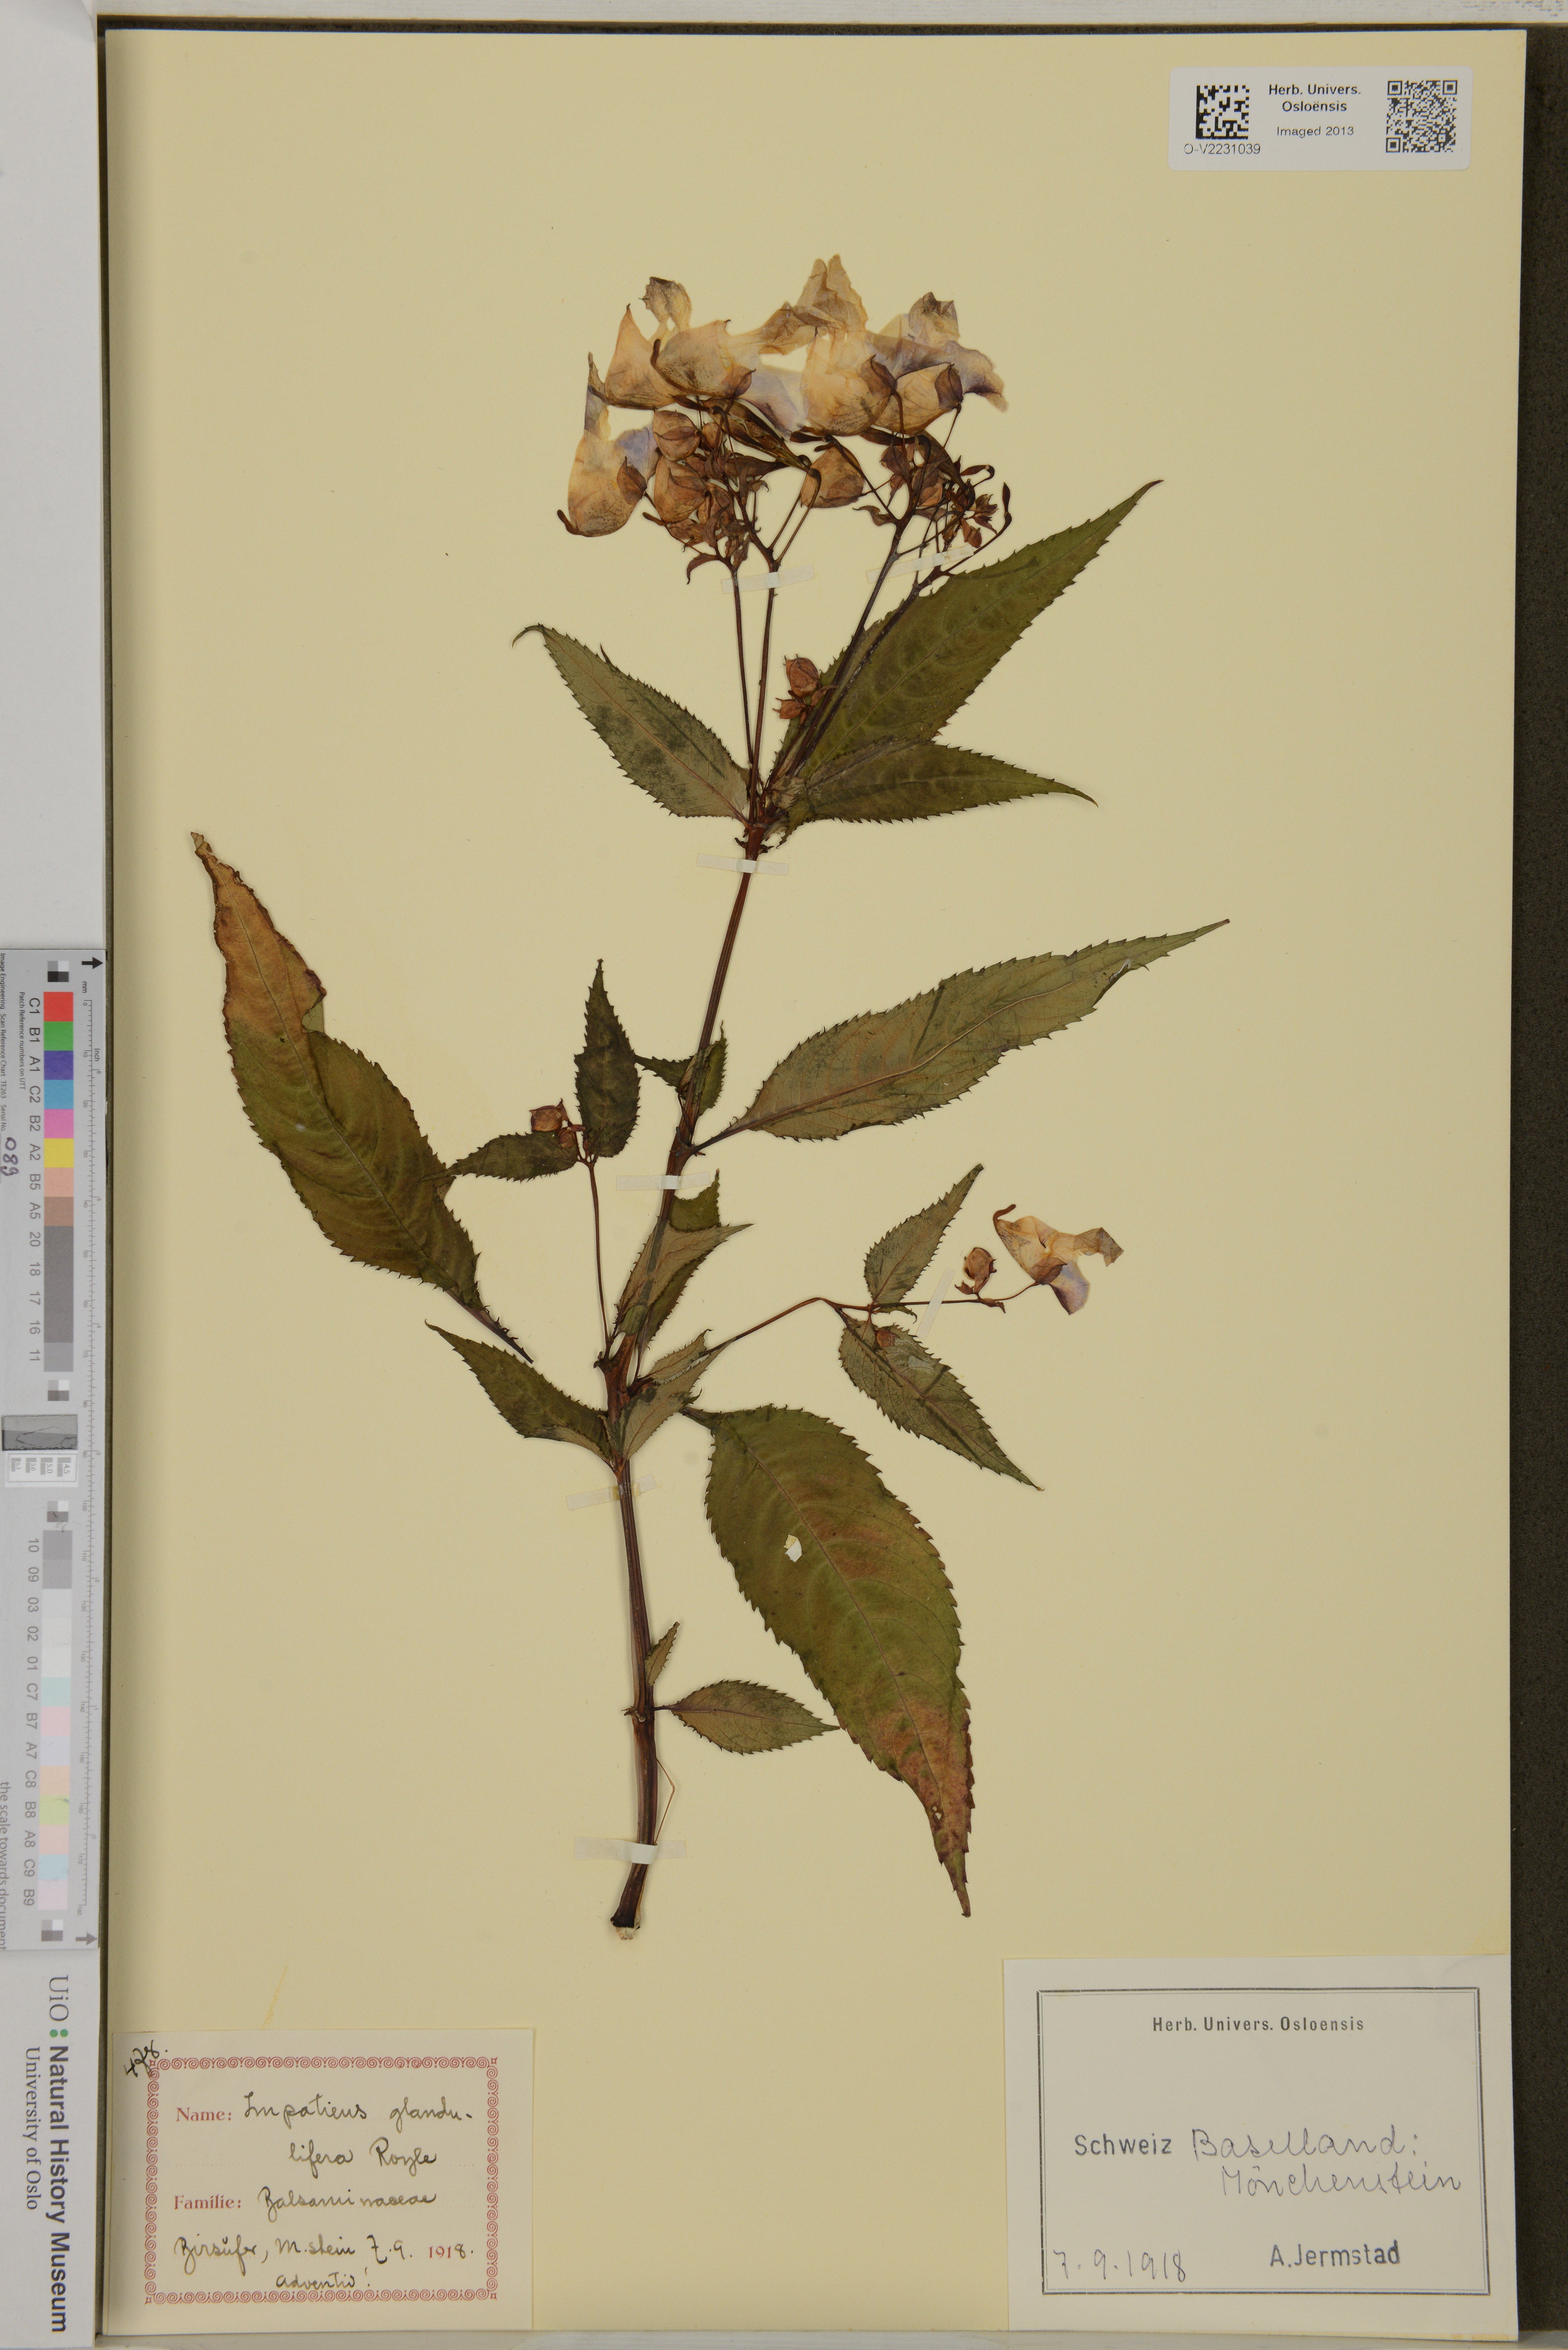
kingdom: Plantae
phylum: Tracheophyta
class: Magnoliopsida
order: Ericales
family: Balsaminaceae
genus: Impatiens
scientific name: Impatiens glandulifera
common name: Himalayan balsam
